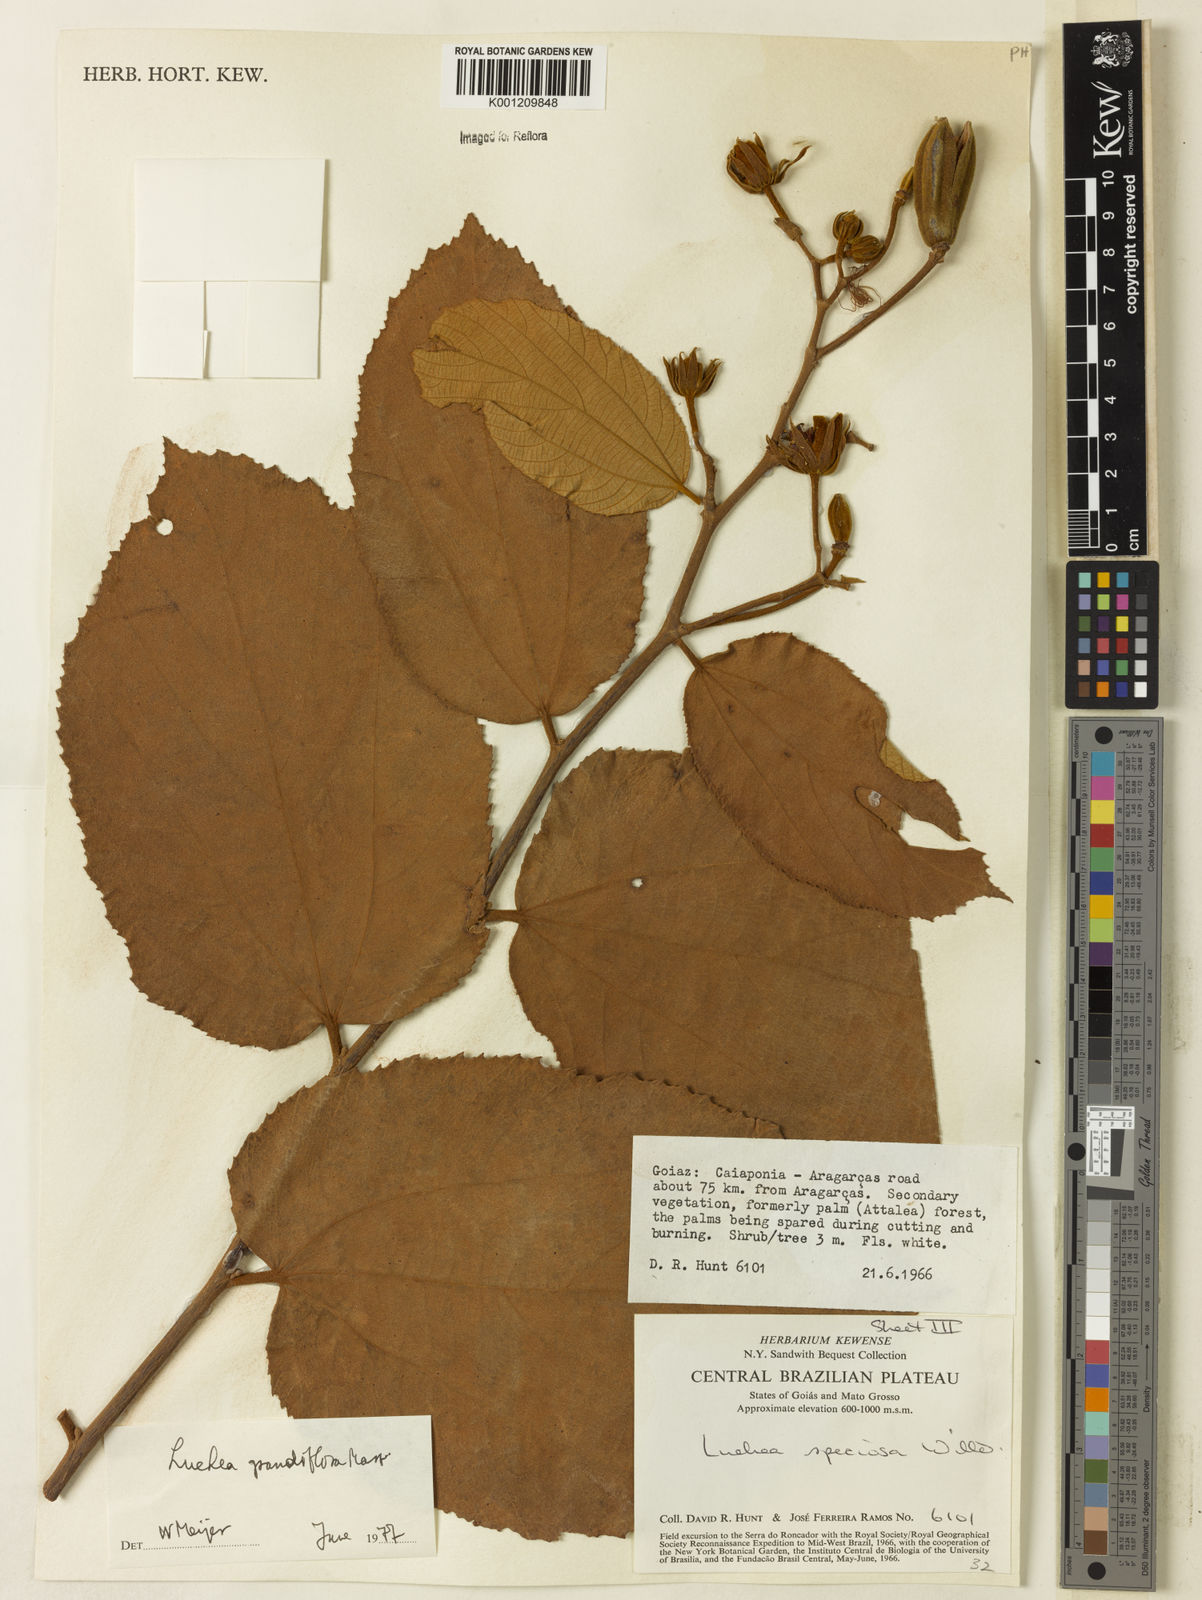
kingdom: Plantae
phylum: Tracheophyta
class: Magnoliopsida
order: Malvales
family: Malvaceae
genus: Luehea
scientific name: Luehea grandiflora
